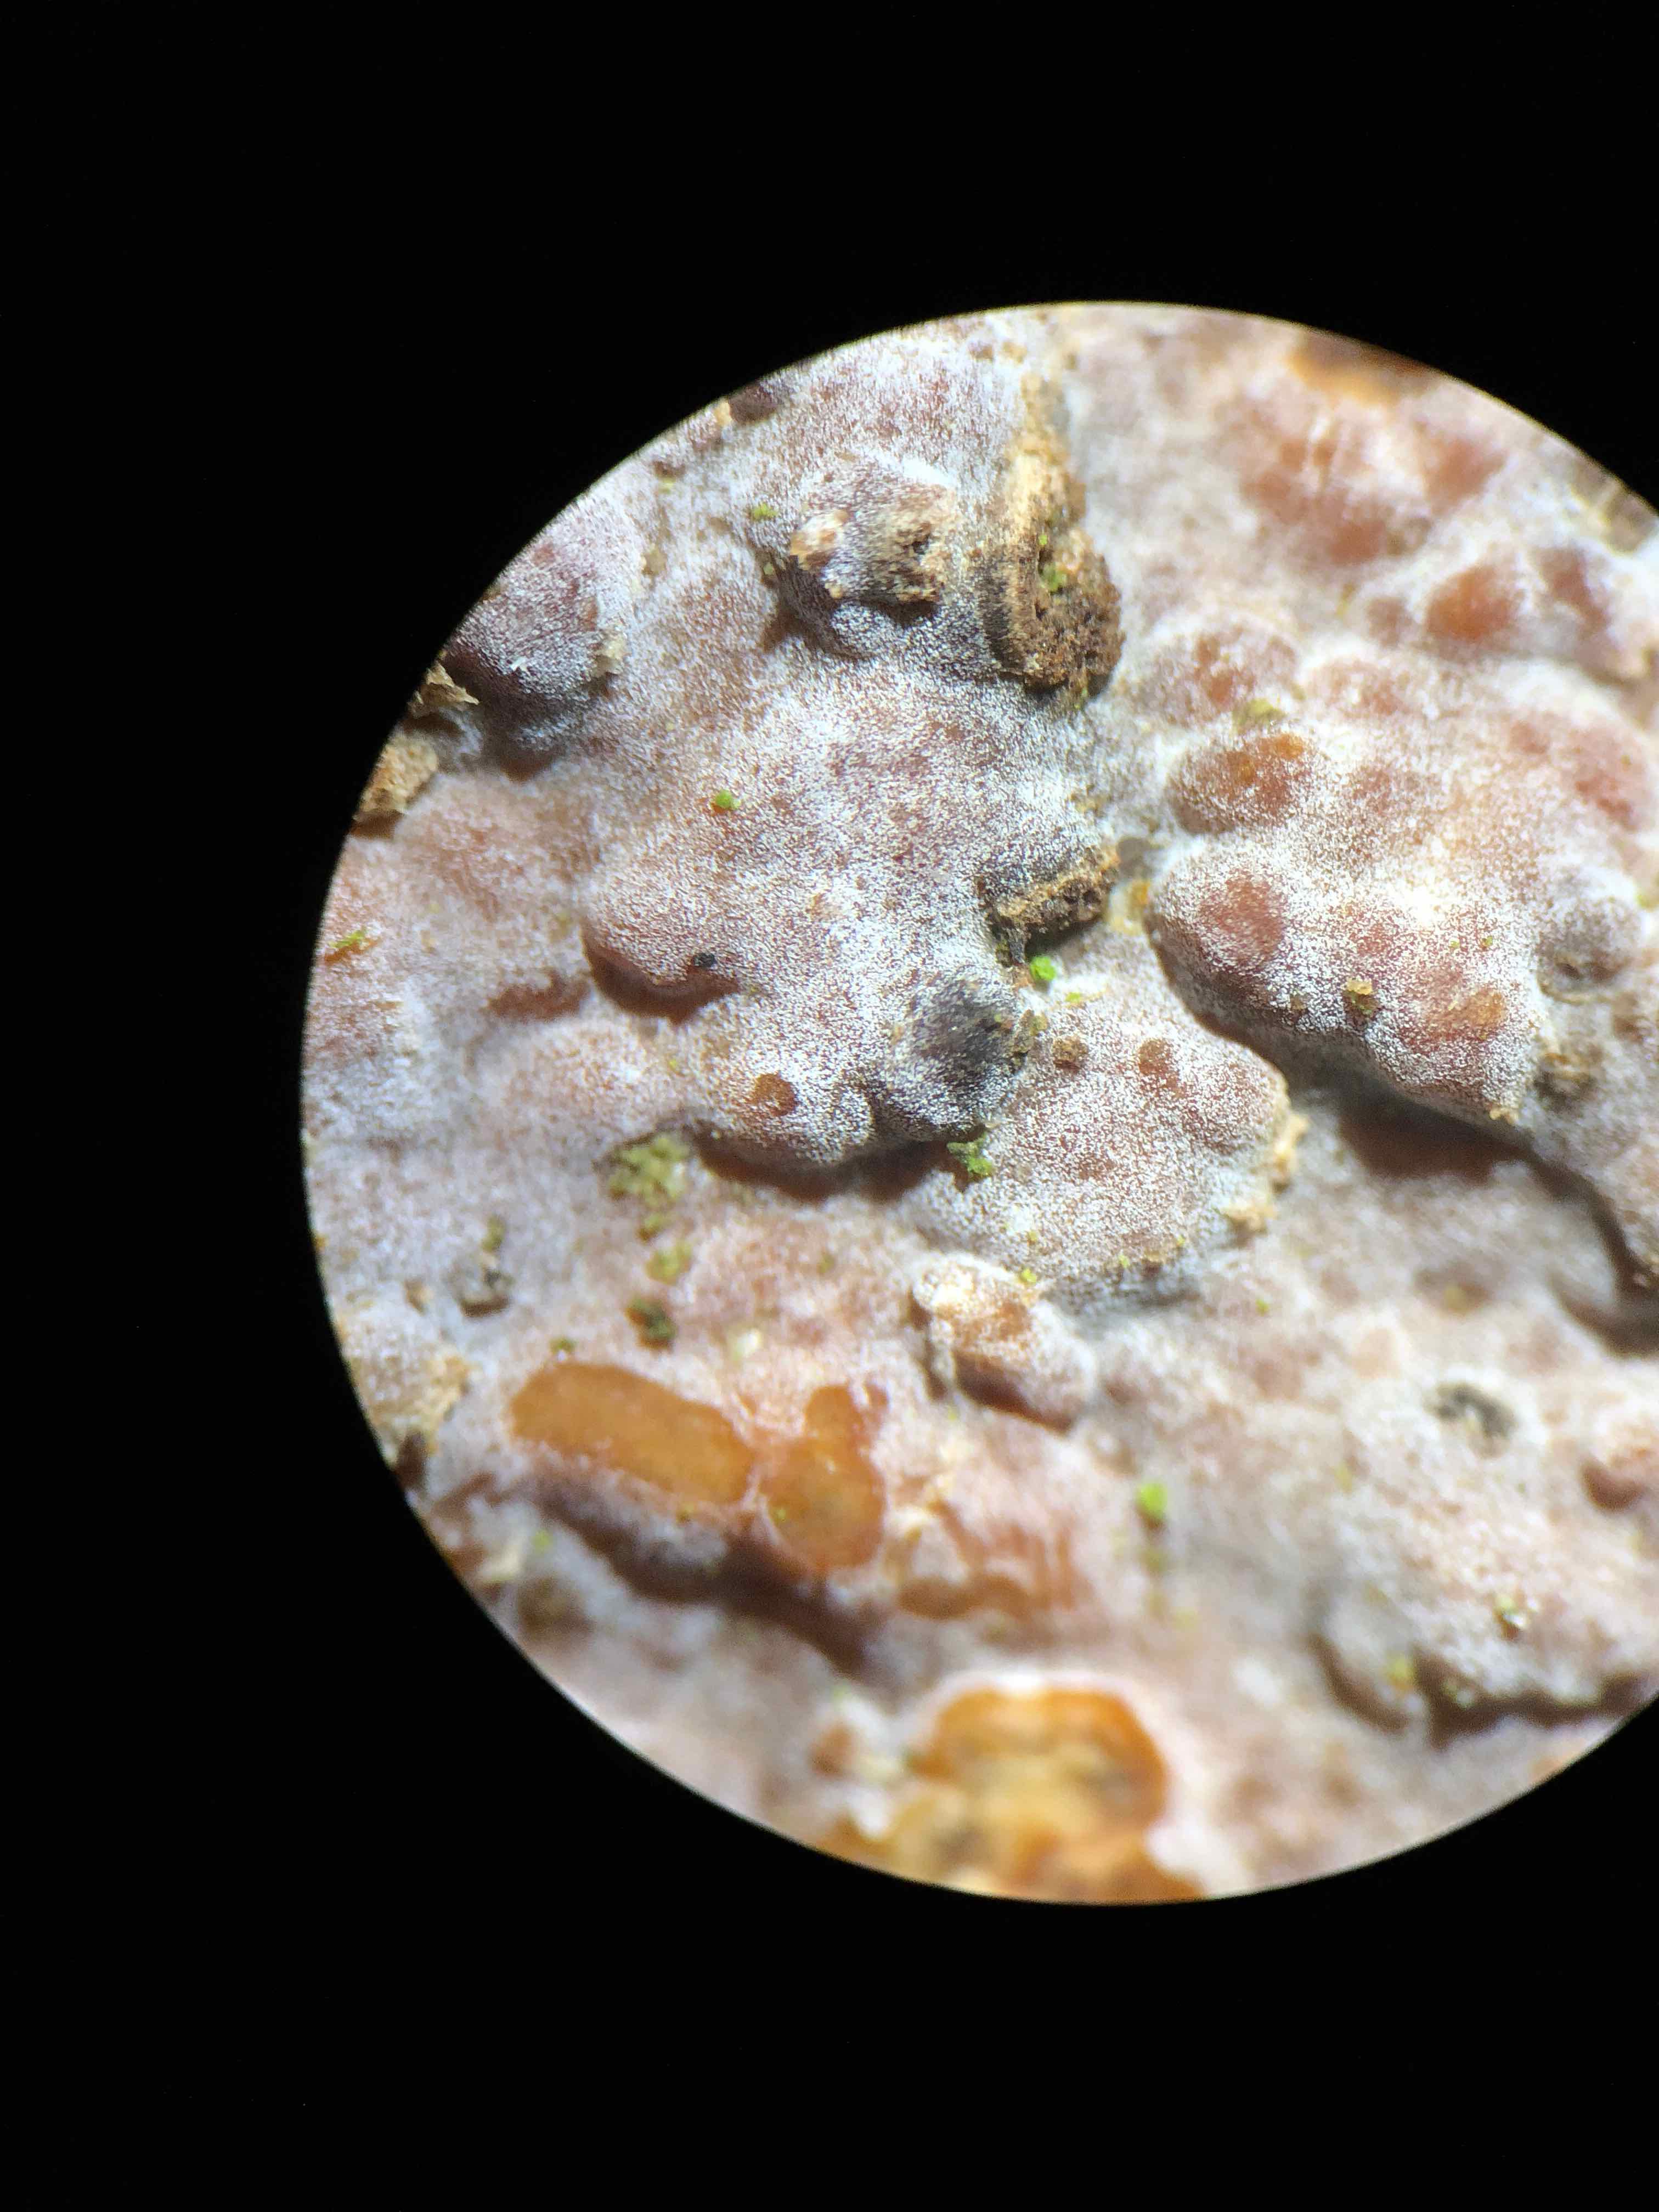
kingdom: Fungi
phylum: Basidiomycota
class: Agaricomycetes
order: Russulales
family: Peniophoraceae
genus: Peniophora
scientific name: Peniophora polygonia
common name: polygon-voksskind
